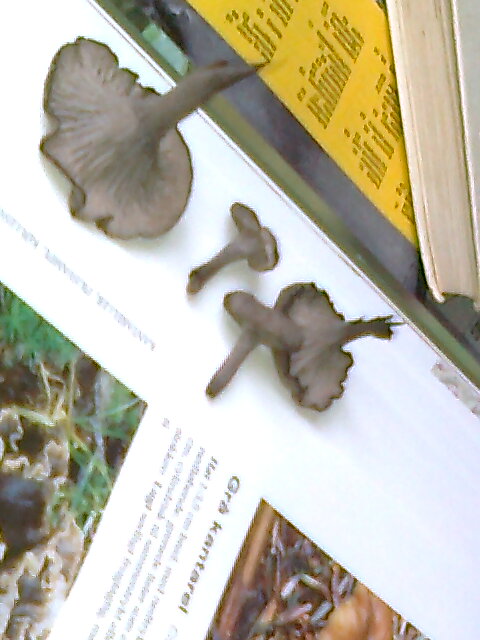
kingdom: Fungi
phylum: Basidiomycota
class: Agaricomycetes
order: Cantharellales
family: Hydnaceae
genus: Cantharellus
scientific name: Cantharellus cinereus
